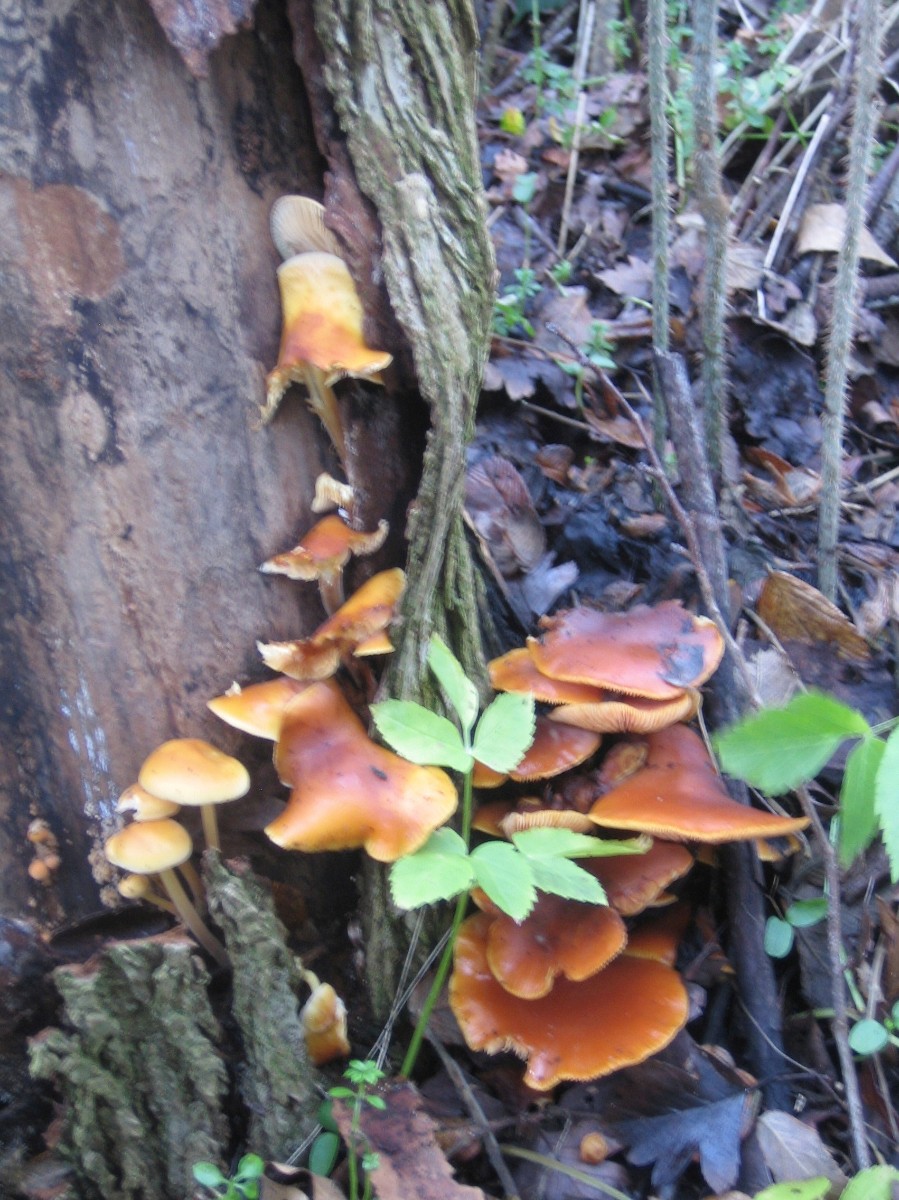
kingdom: Fungi
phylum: Basidiomycota
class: Agaricomycetes
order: Agaricales
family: Physalacriaceae
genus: Flammulina
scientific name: Flammulina velutipes
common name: gul fløjlsfod
